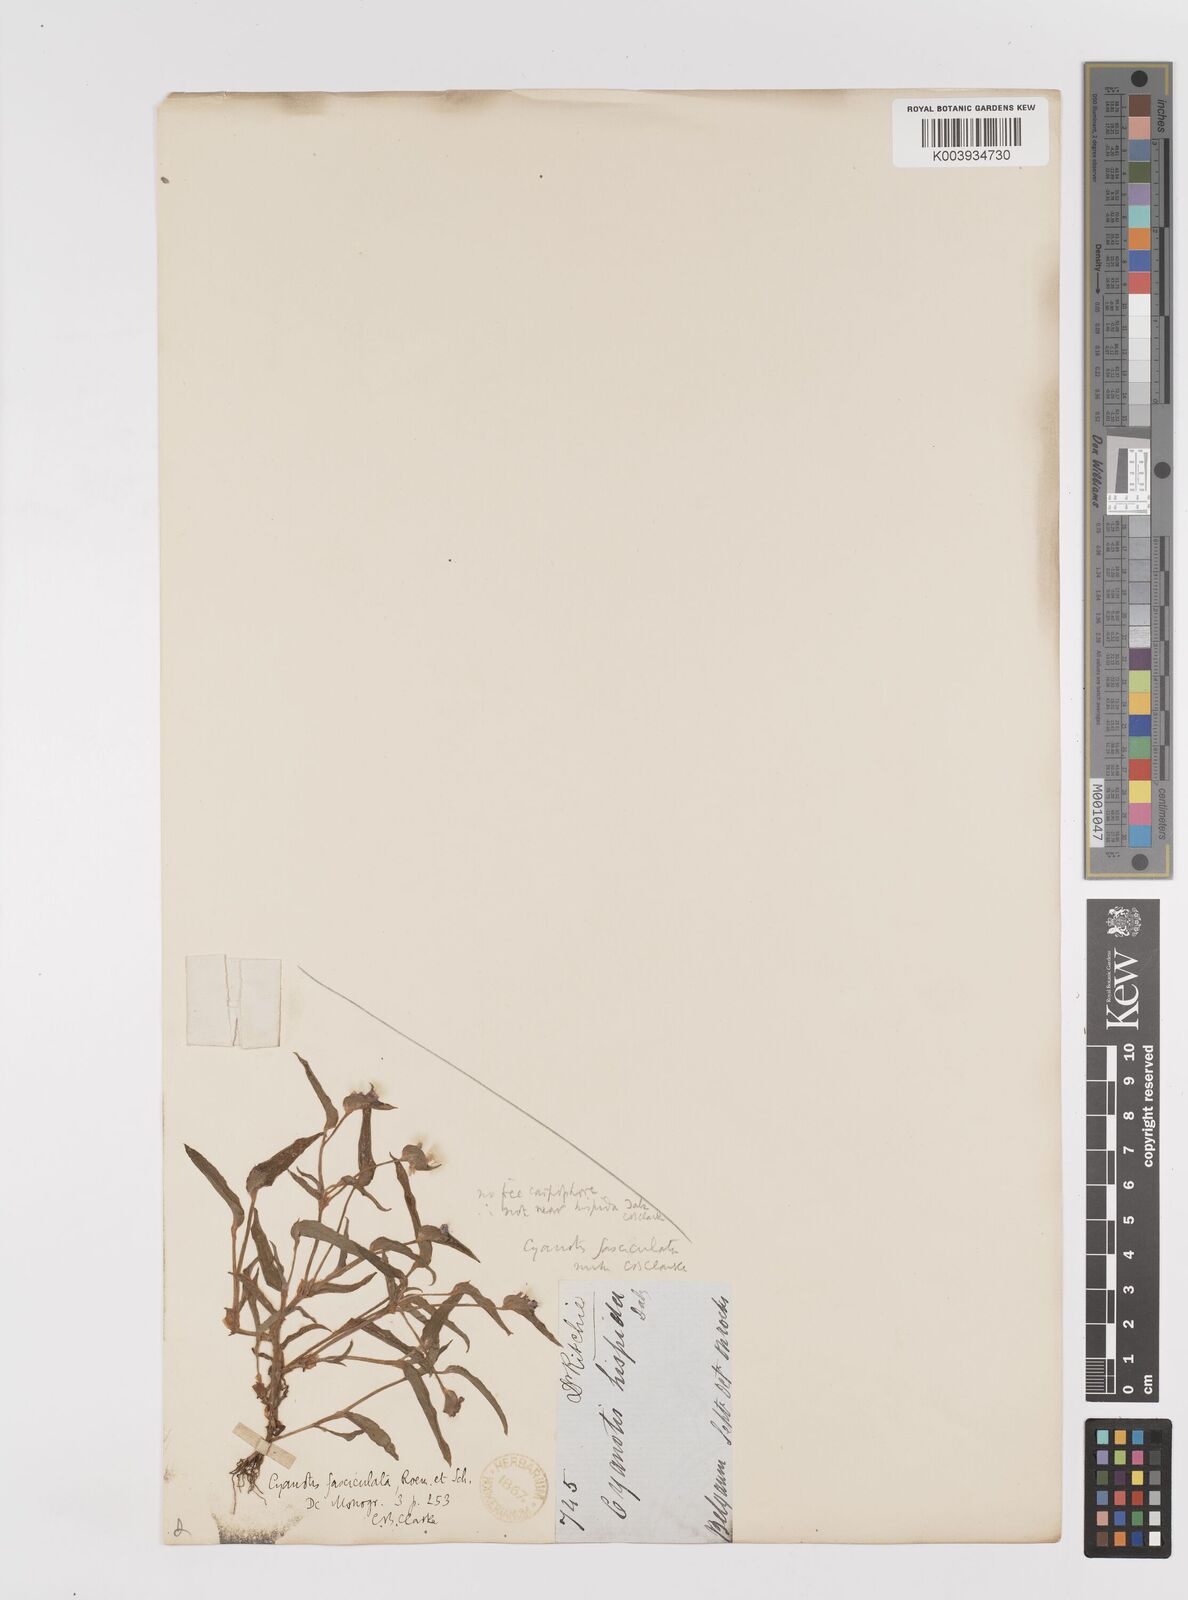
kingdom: Plantae
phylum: Tracheophyta
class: Liliopsida
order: Commelinales
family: Commelinaceae
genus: Cyanotis
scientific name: Cyanotis fasciculata
